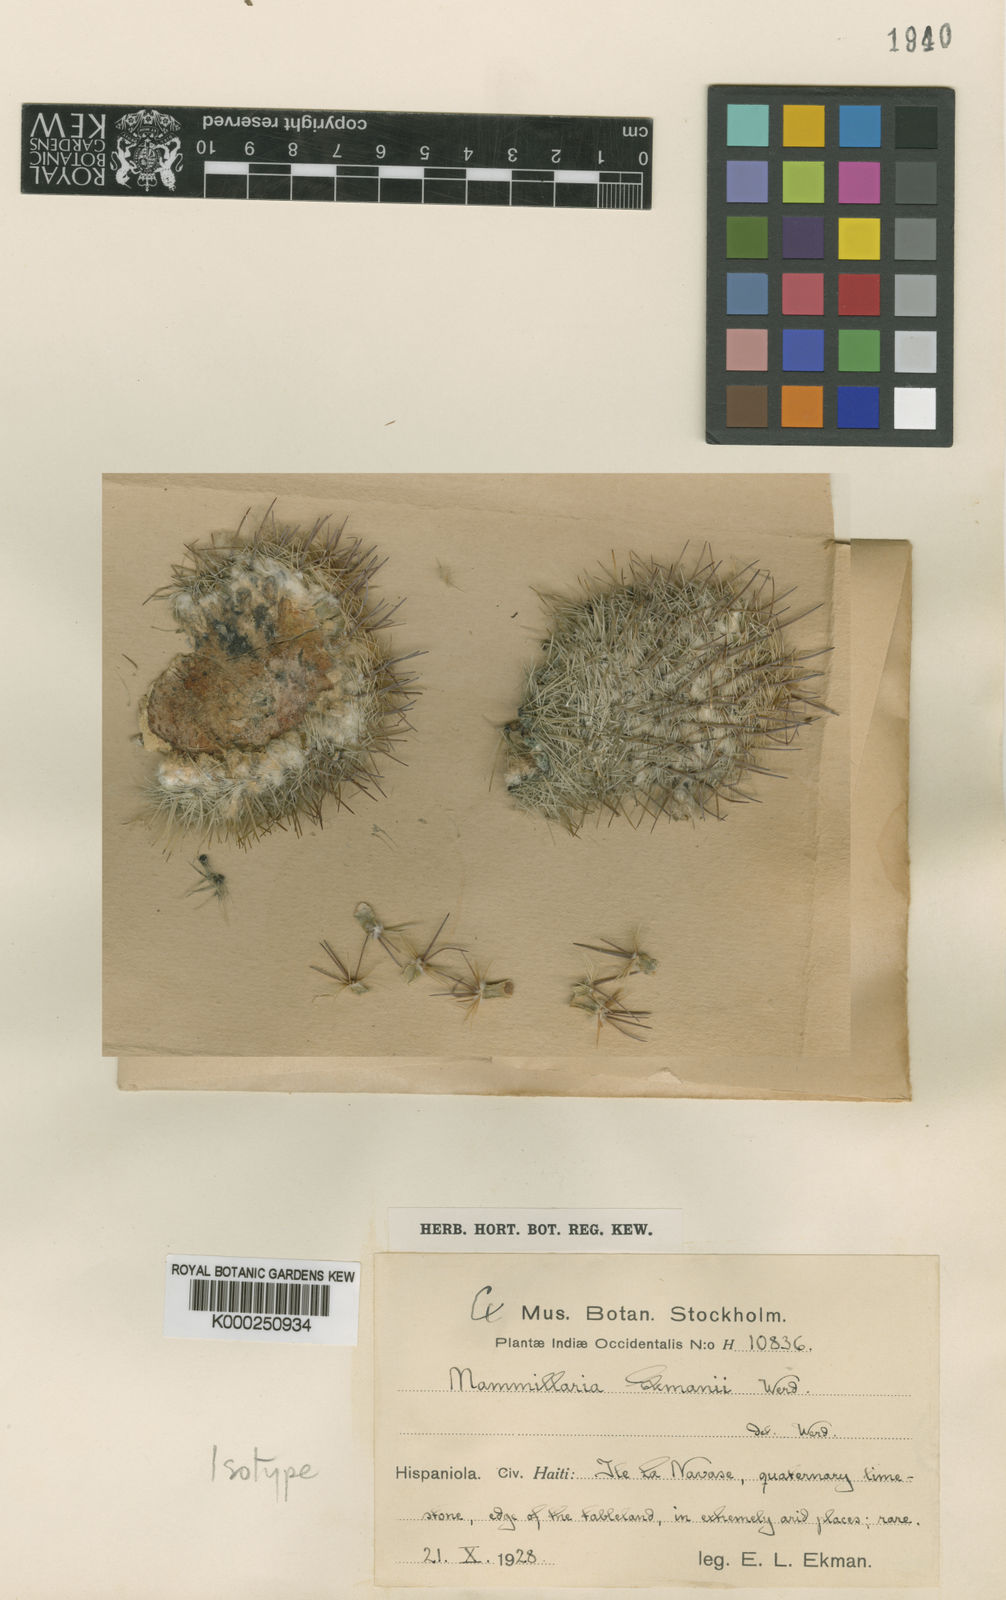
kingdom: Plantae
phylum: Tracheophyta
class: Magnoliopsida
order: Caryophyllales
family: Cactaceae
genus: Mammillaria
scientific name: Mammillaria ekmanii
